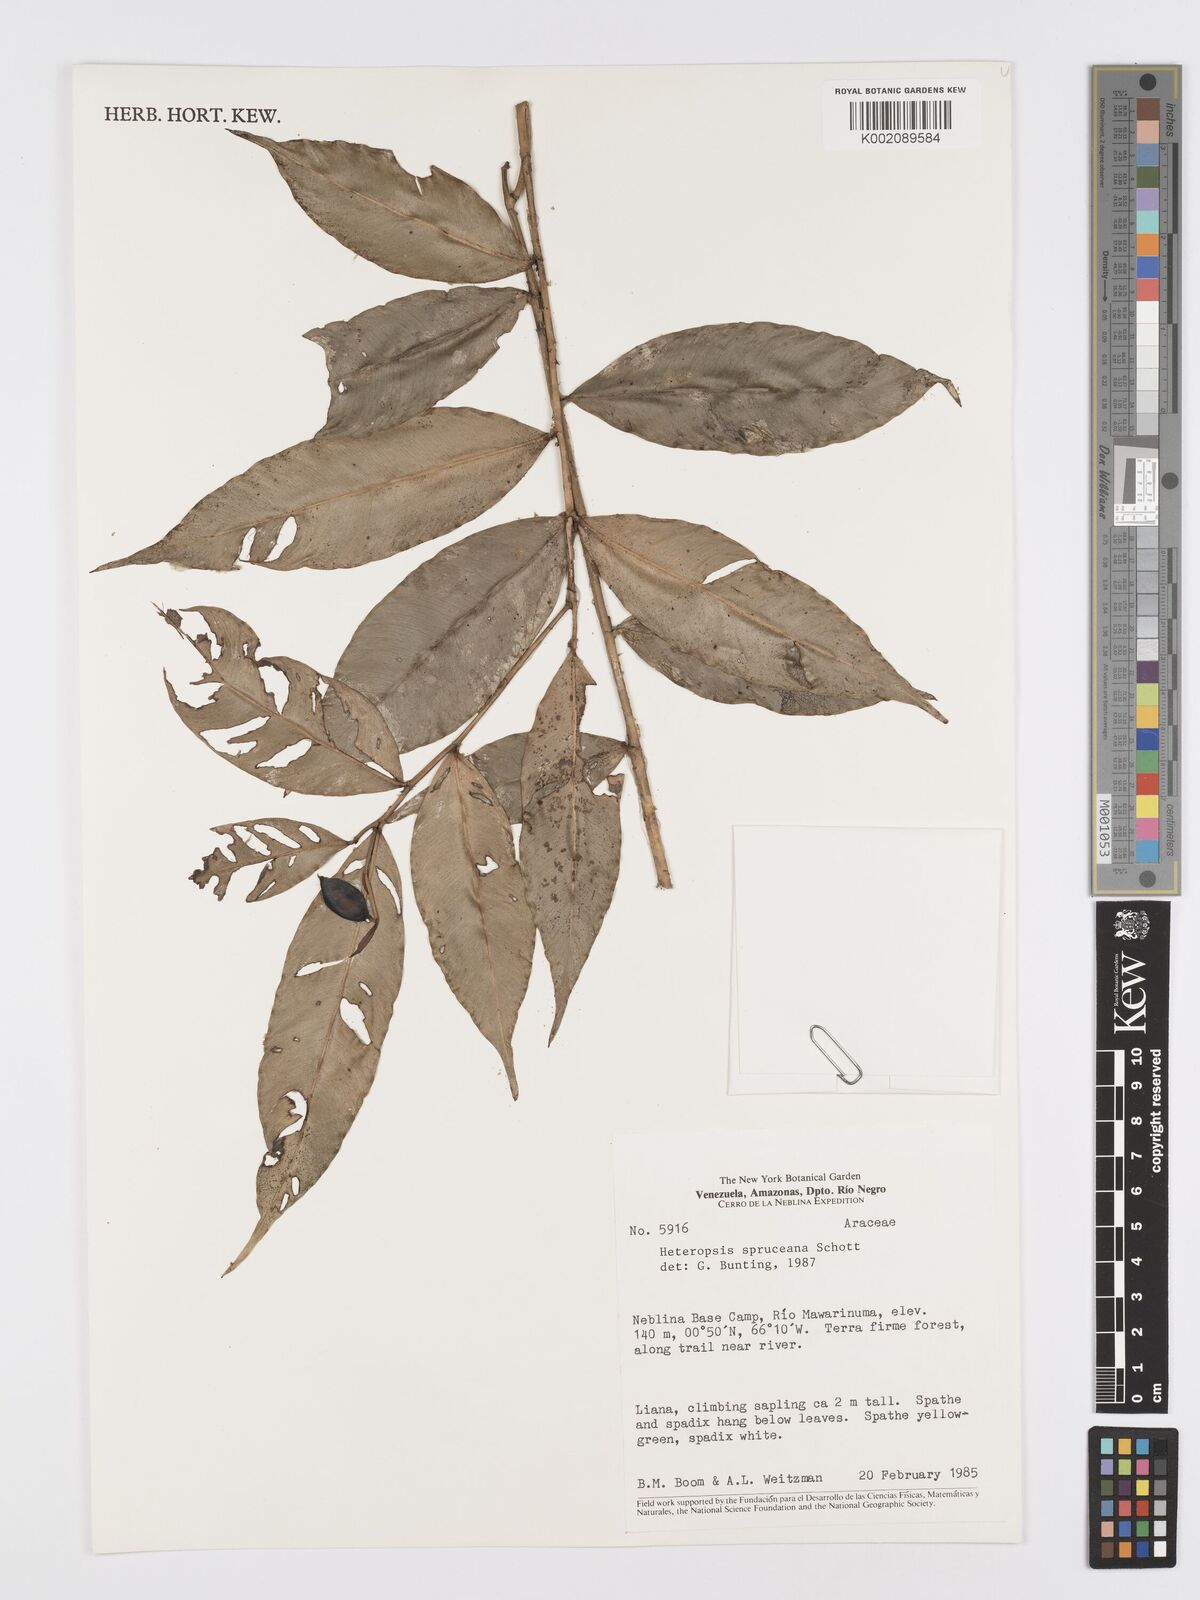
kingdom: Plantae
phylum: Tracheophyta
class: Liliopsida
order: Alismatales
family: Araceae
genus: Heteropsis
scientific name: Heteropsis spruceana
